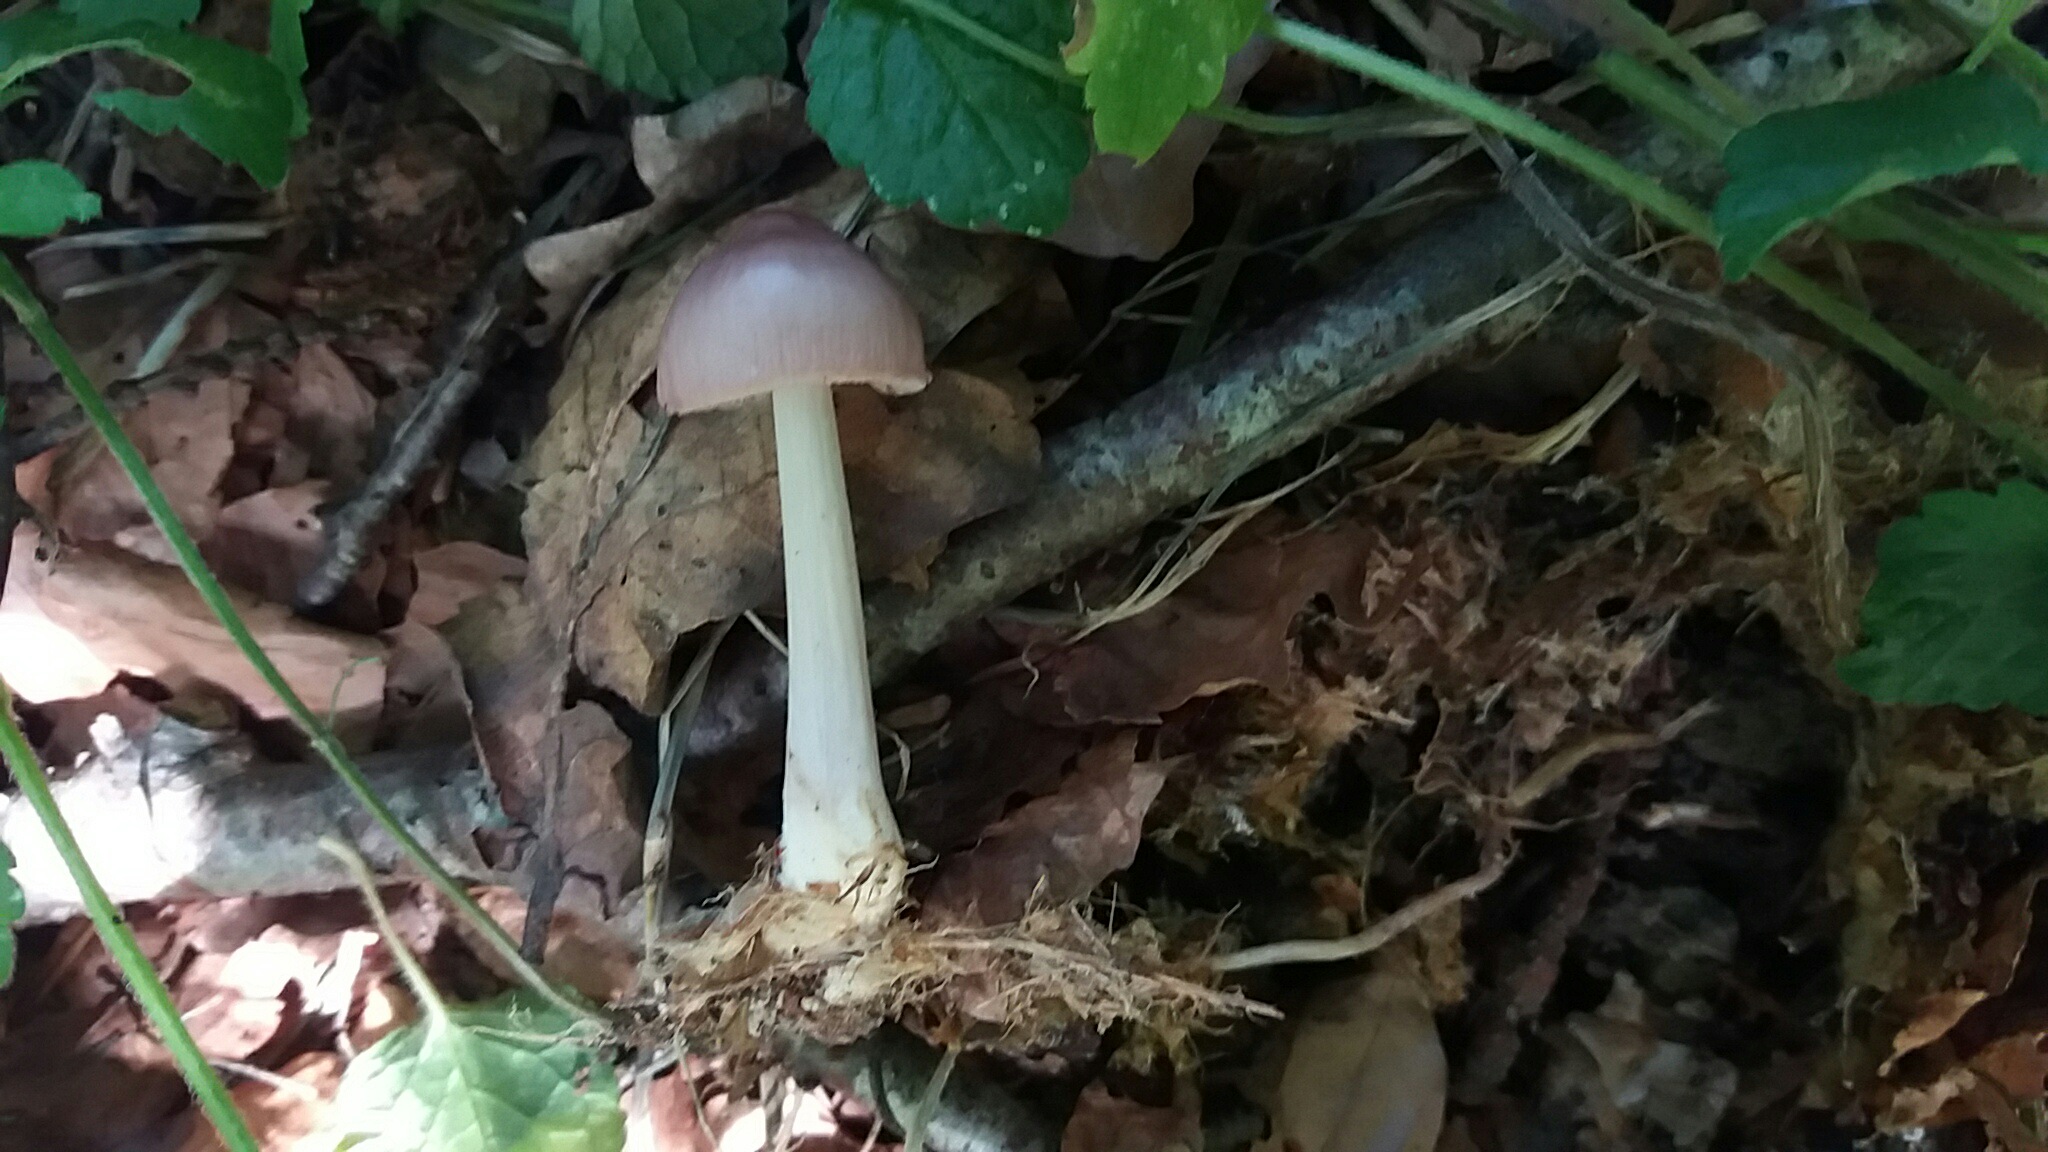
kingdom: Fungi
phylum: Basidiomycota
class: Agaricomycetes
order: Agaricales
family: Mycenaceae
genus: Mycena
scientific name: Mycena rosea
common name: rosa huesvamp
